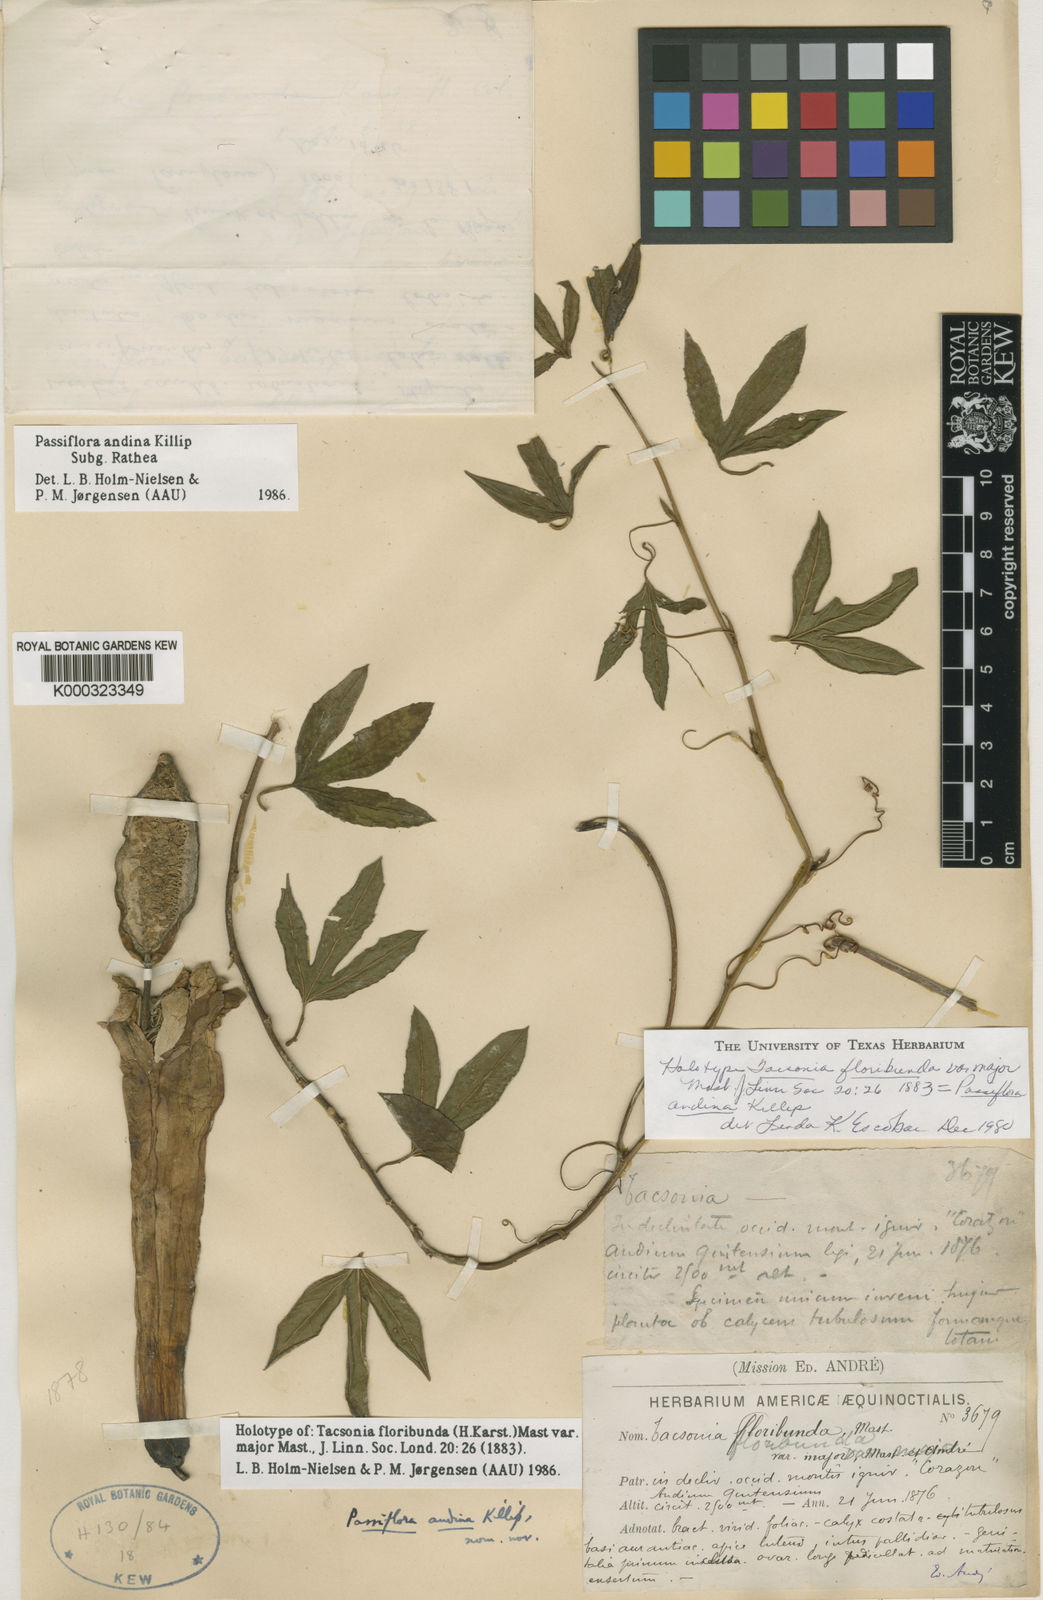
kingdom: Plantae
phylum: Tracheophyta
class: Magnoliopsida
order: Malpighiales
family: Passifloraceae
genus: Passiflora
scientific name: Passiflora andina
